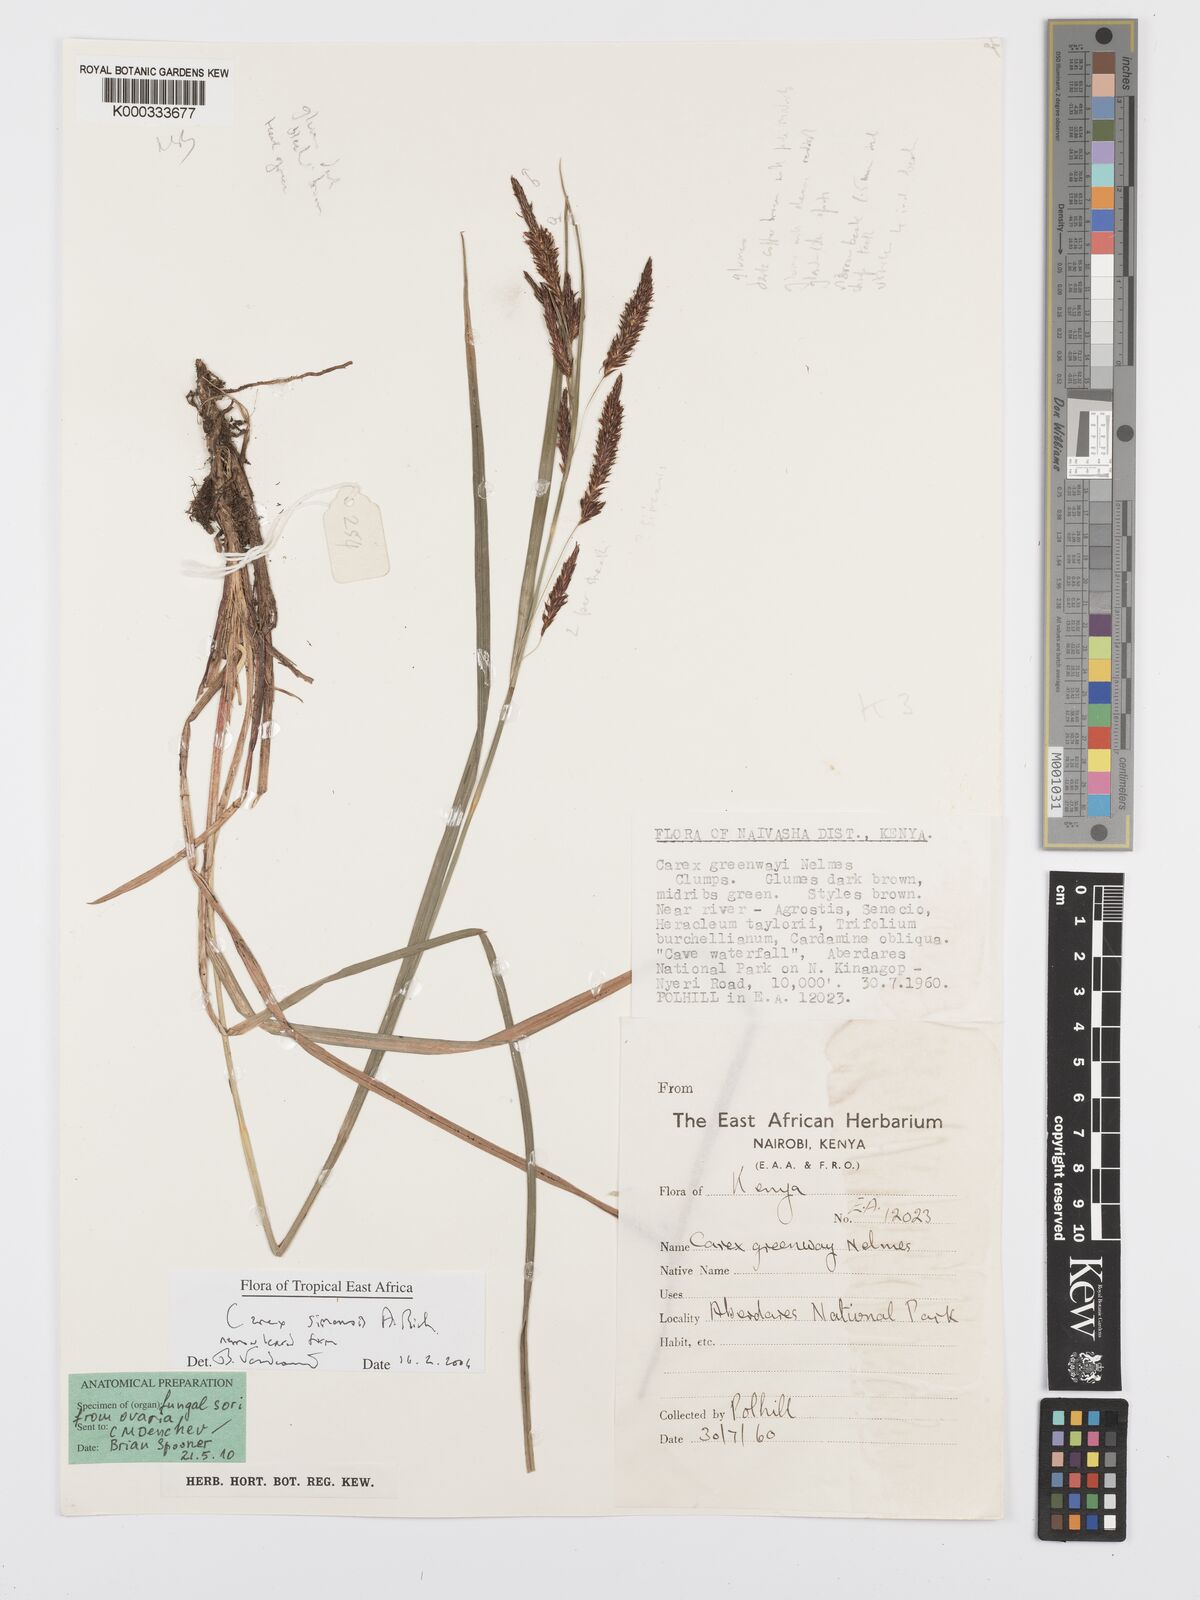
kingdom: Plantae
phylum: Tracheophyta
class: Liliopsida
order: Poales
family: Cyperaceae
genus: Carex
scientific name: Carex simensis
